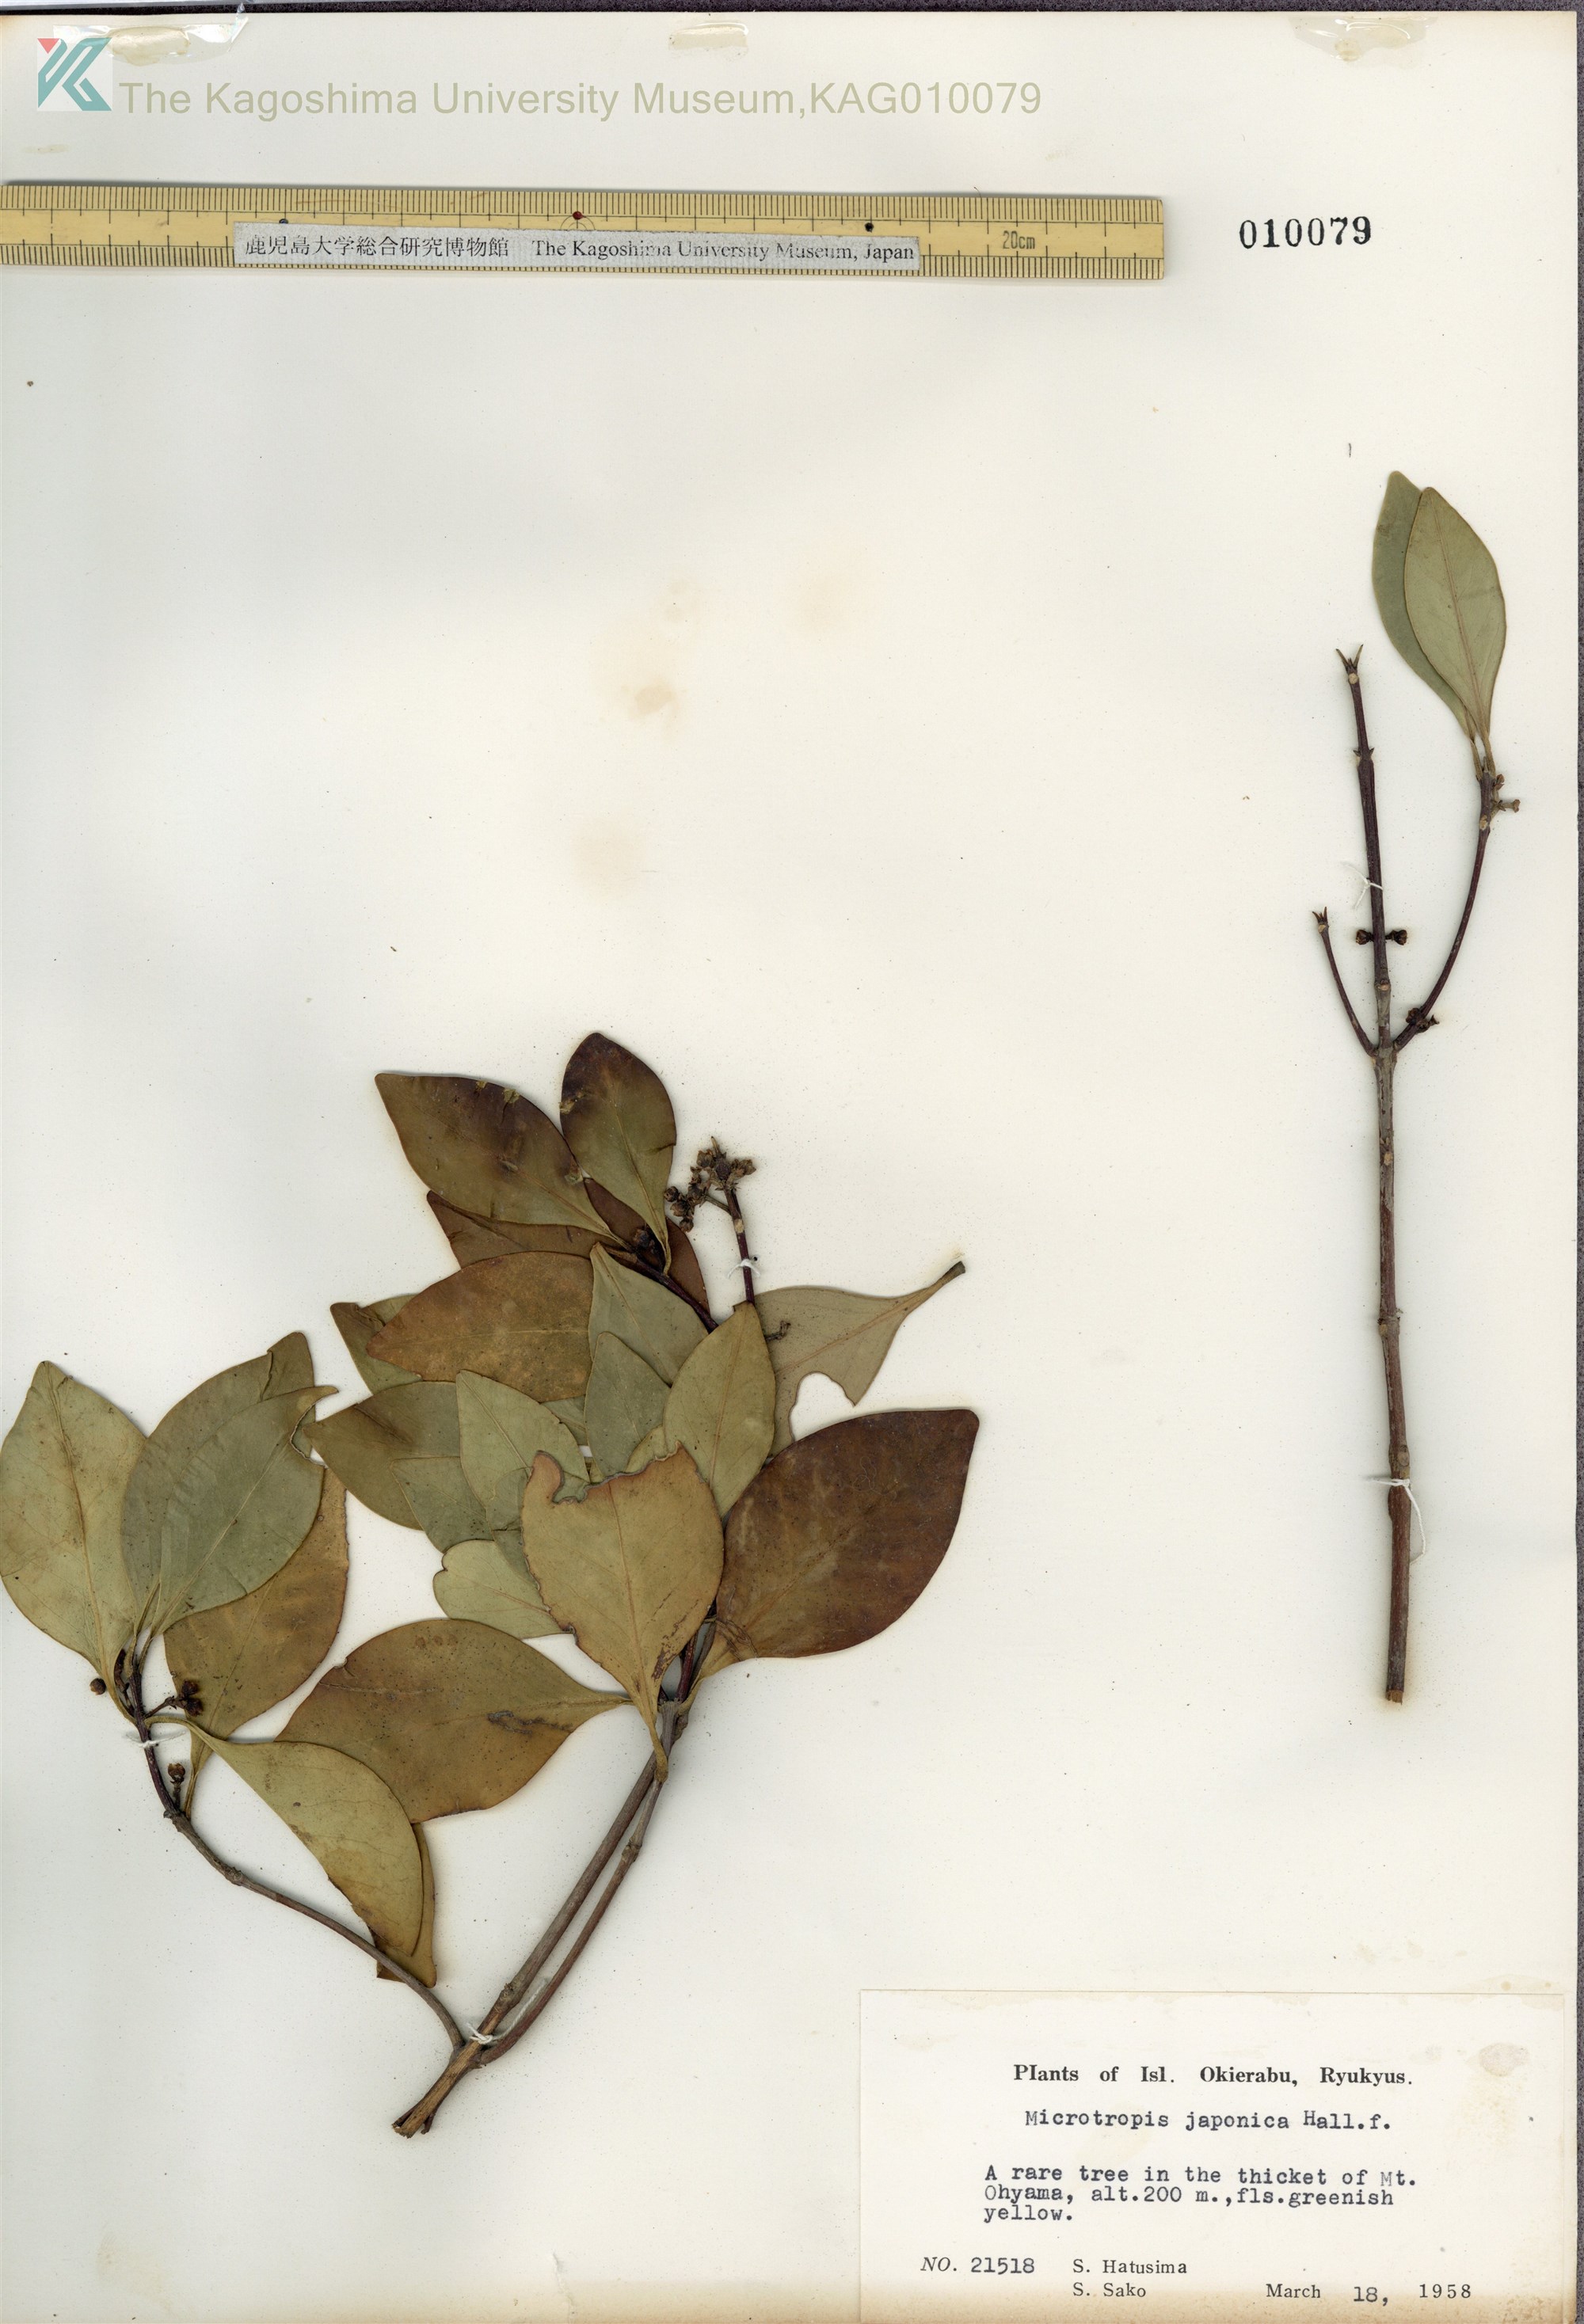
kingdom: Plantae
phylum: Tracheophyta
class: Magnoliopsida
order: Celastrales
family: Celastraceae
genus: Microtropis
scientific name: Microtropis japonica
